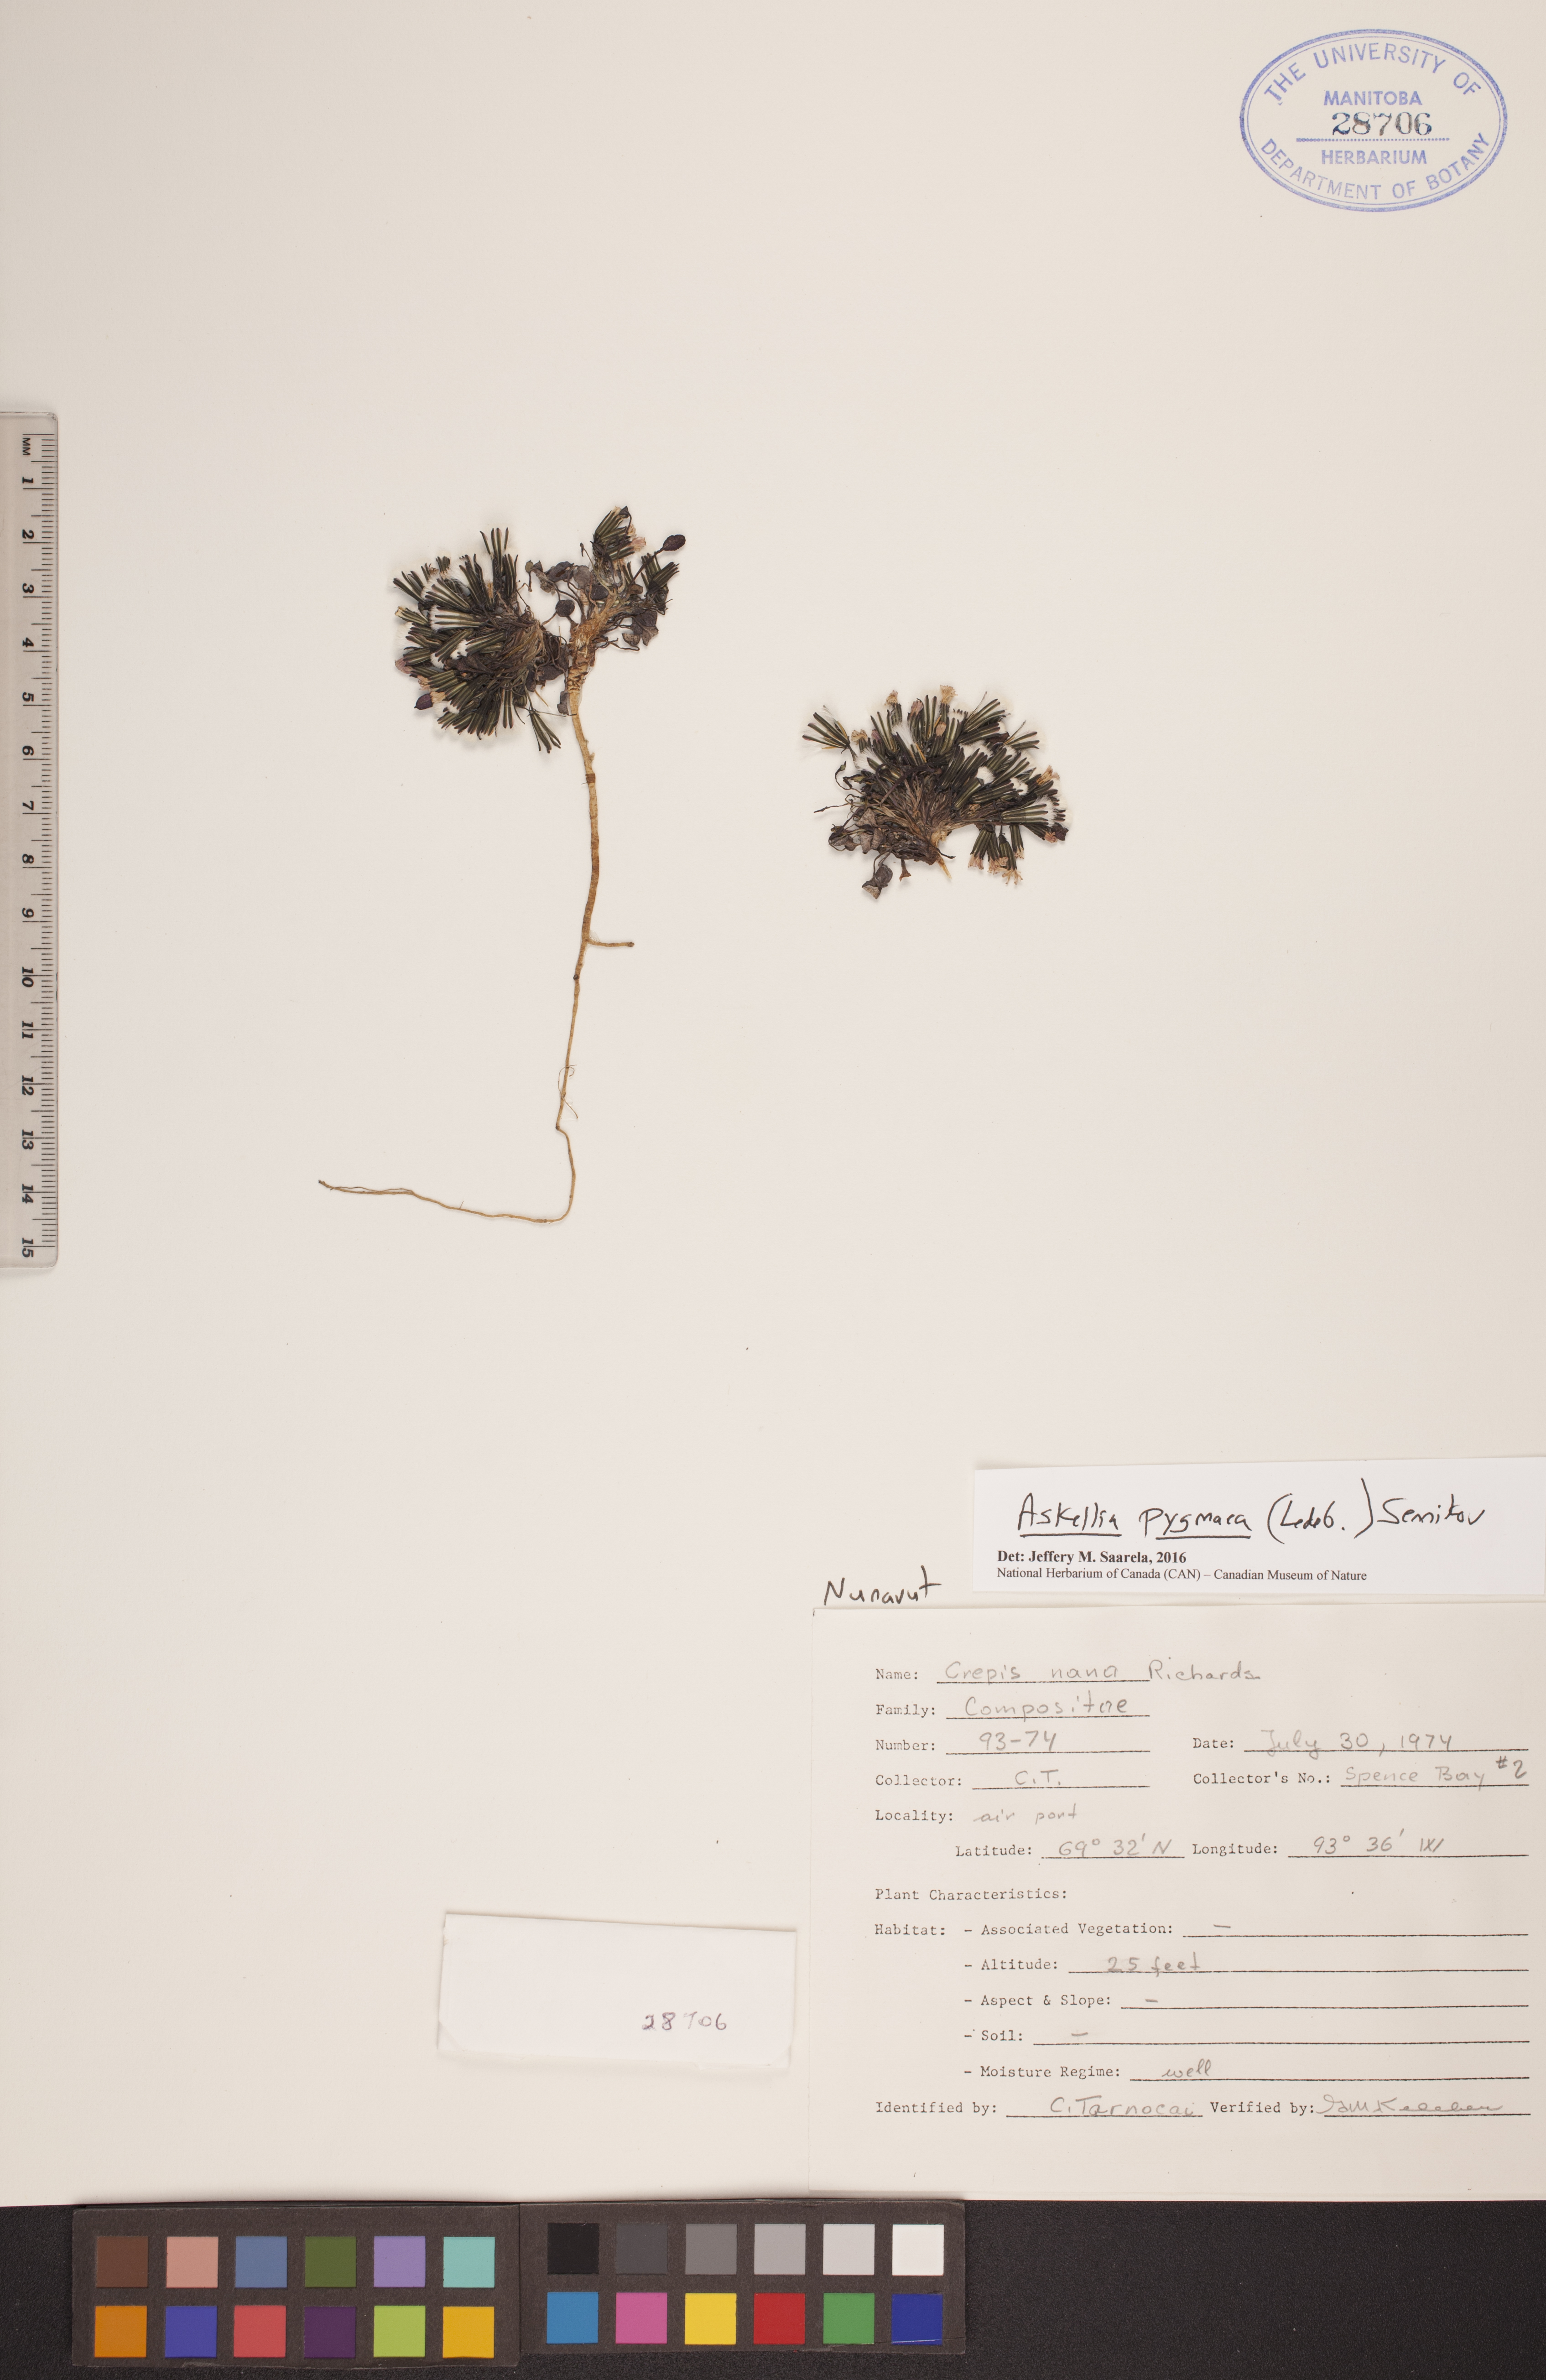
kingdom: Plantae
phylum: Tracheophyta
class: Magnoliopsida
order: Asterales
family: Asteraceae
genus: Askellia
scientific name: Askellia pygmaea
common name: Dwarf alpine hawksbeard
